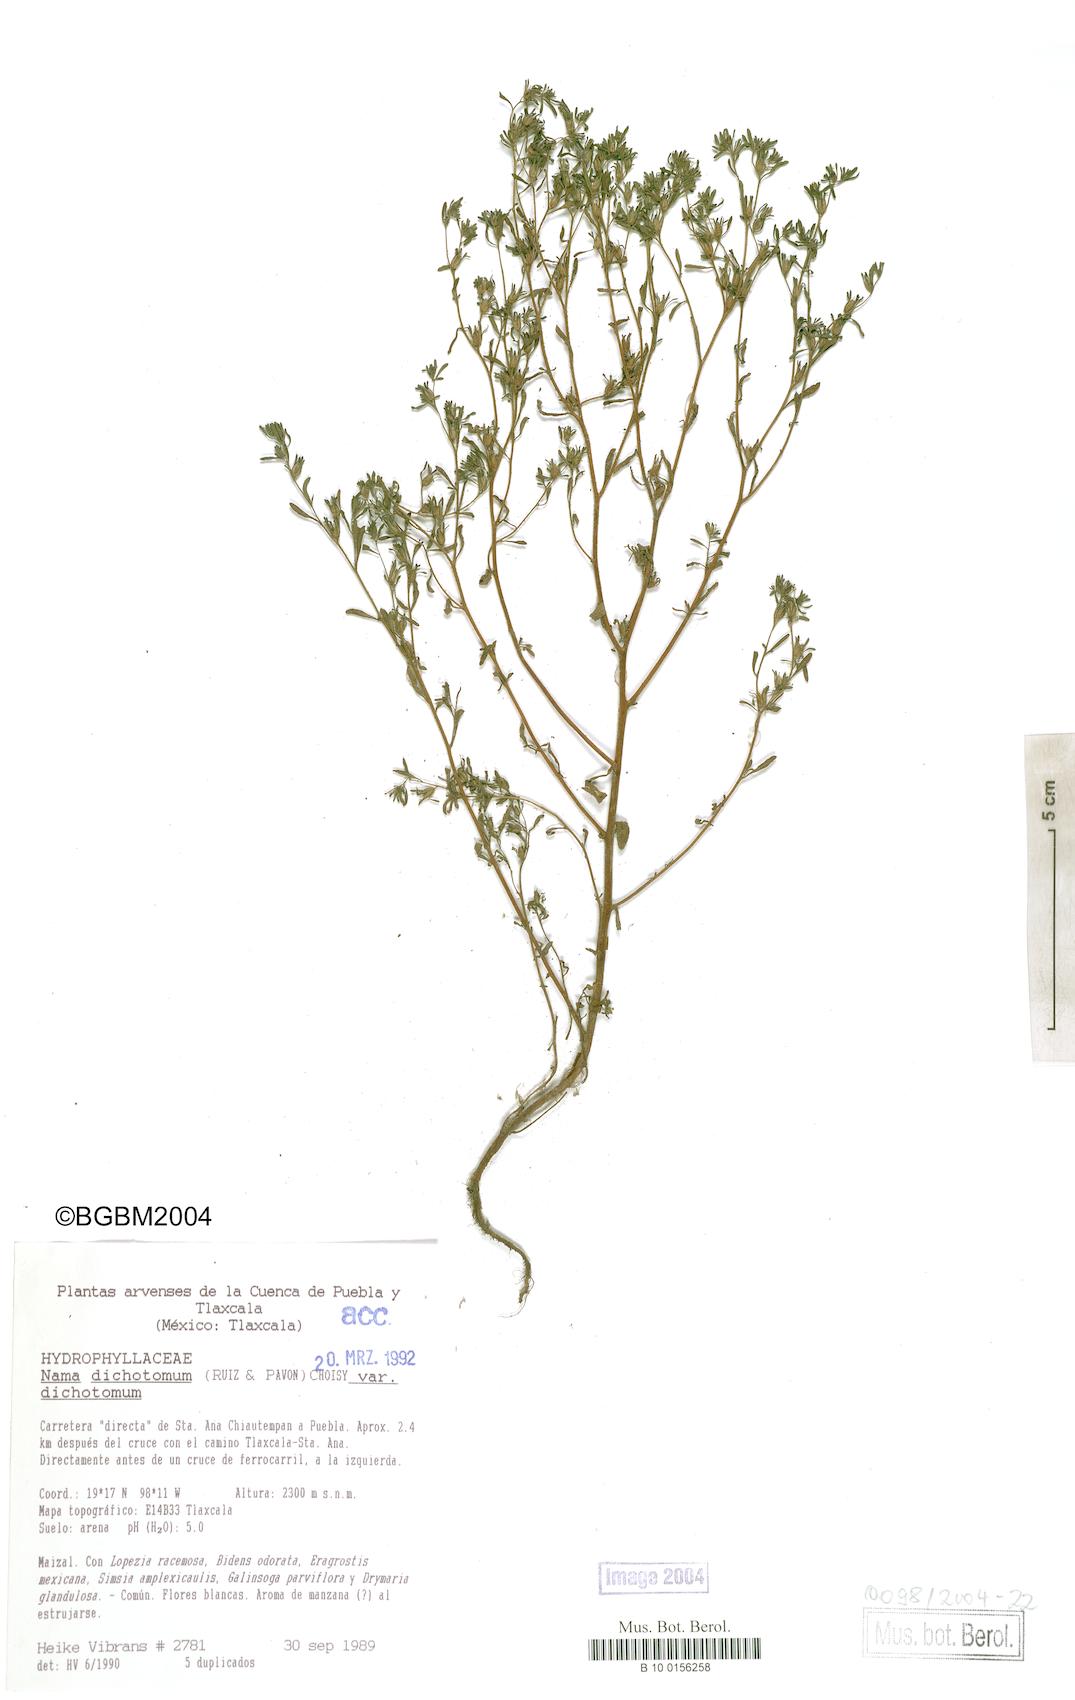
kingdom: Plantae
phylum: Tracheophyta
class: Magnoliopsida
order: Boraginales
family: Namaceae
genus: Nama
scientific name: Nama dichotoma
